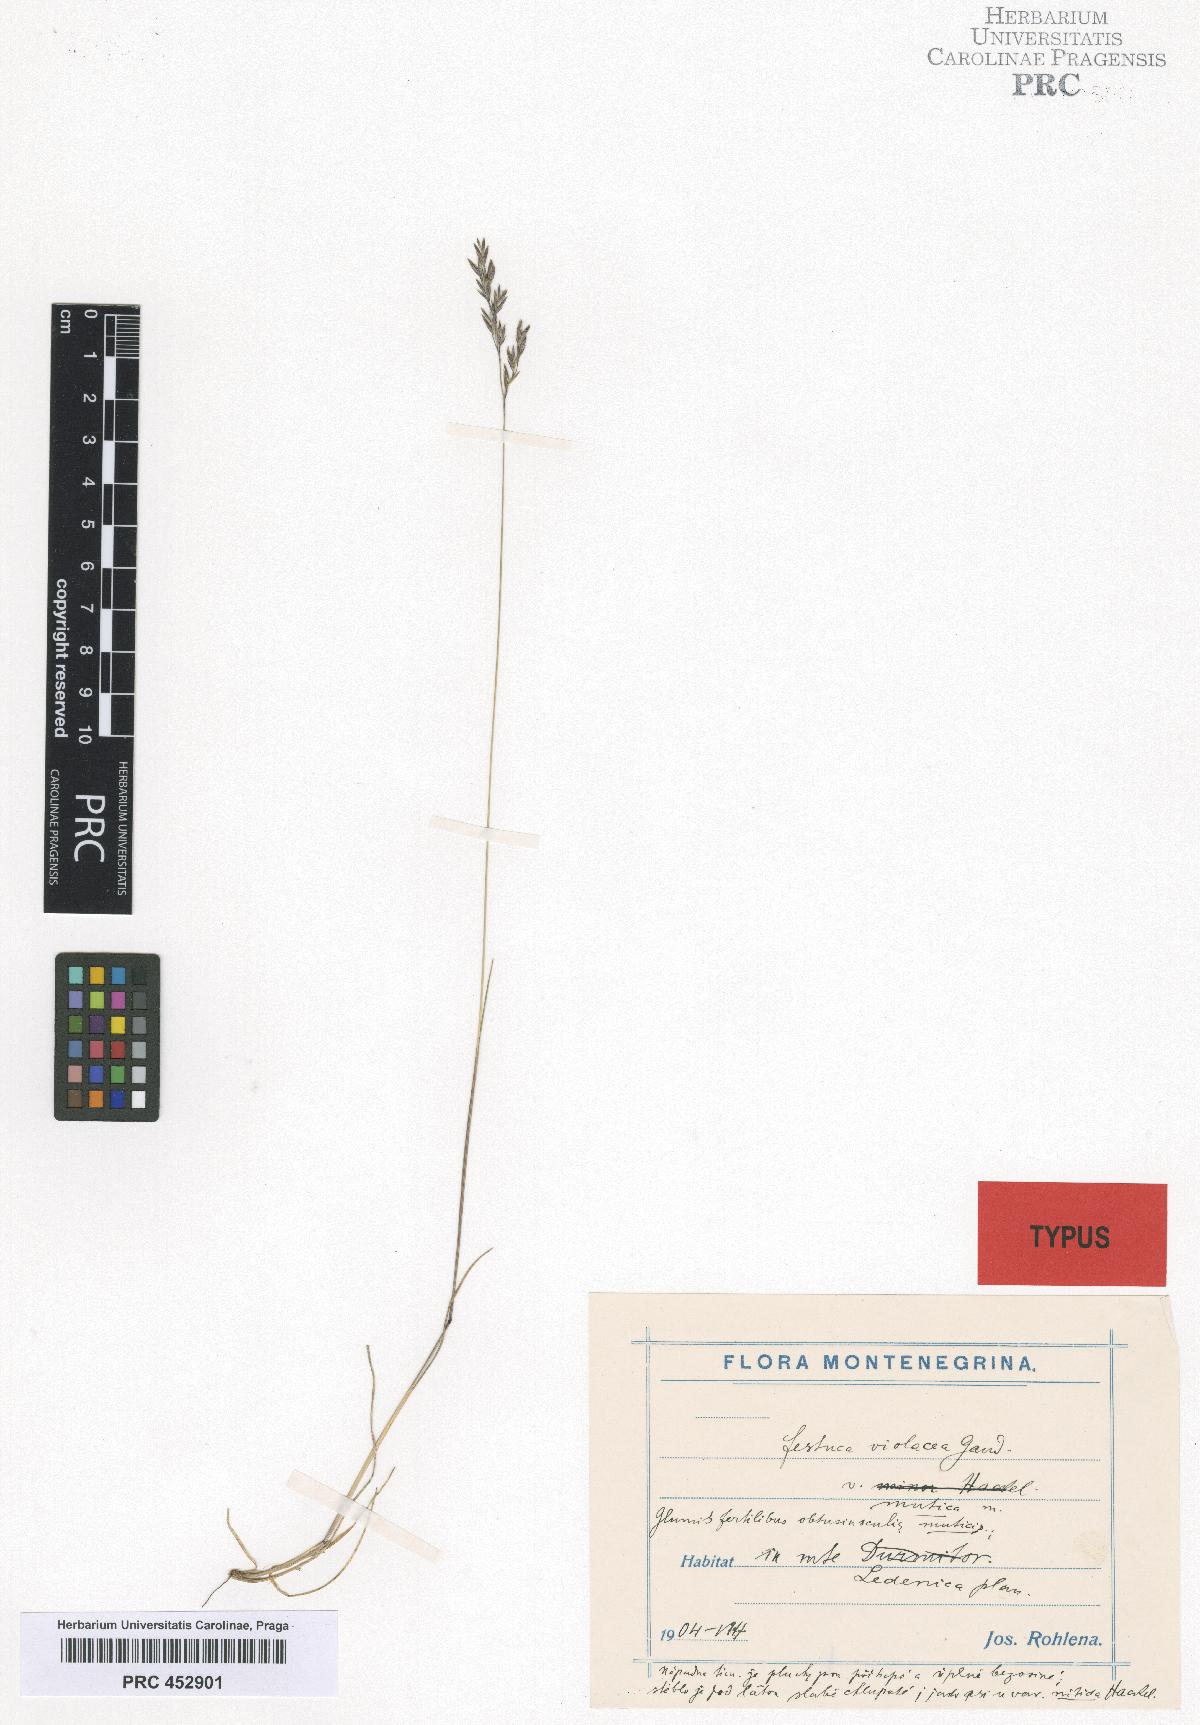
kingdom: Plantae
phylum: Tracheophyta
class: Liliopsida
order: Poales
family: Poaceae
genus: Festuca
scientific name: Festuca amethystina
